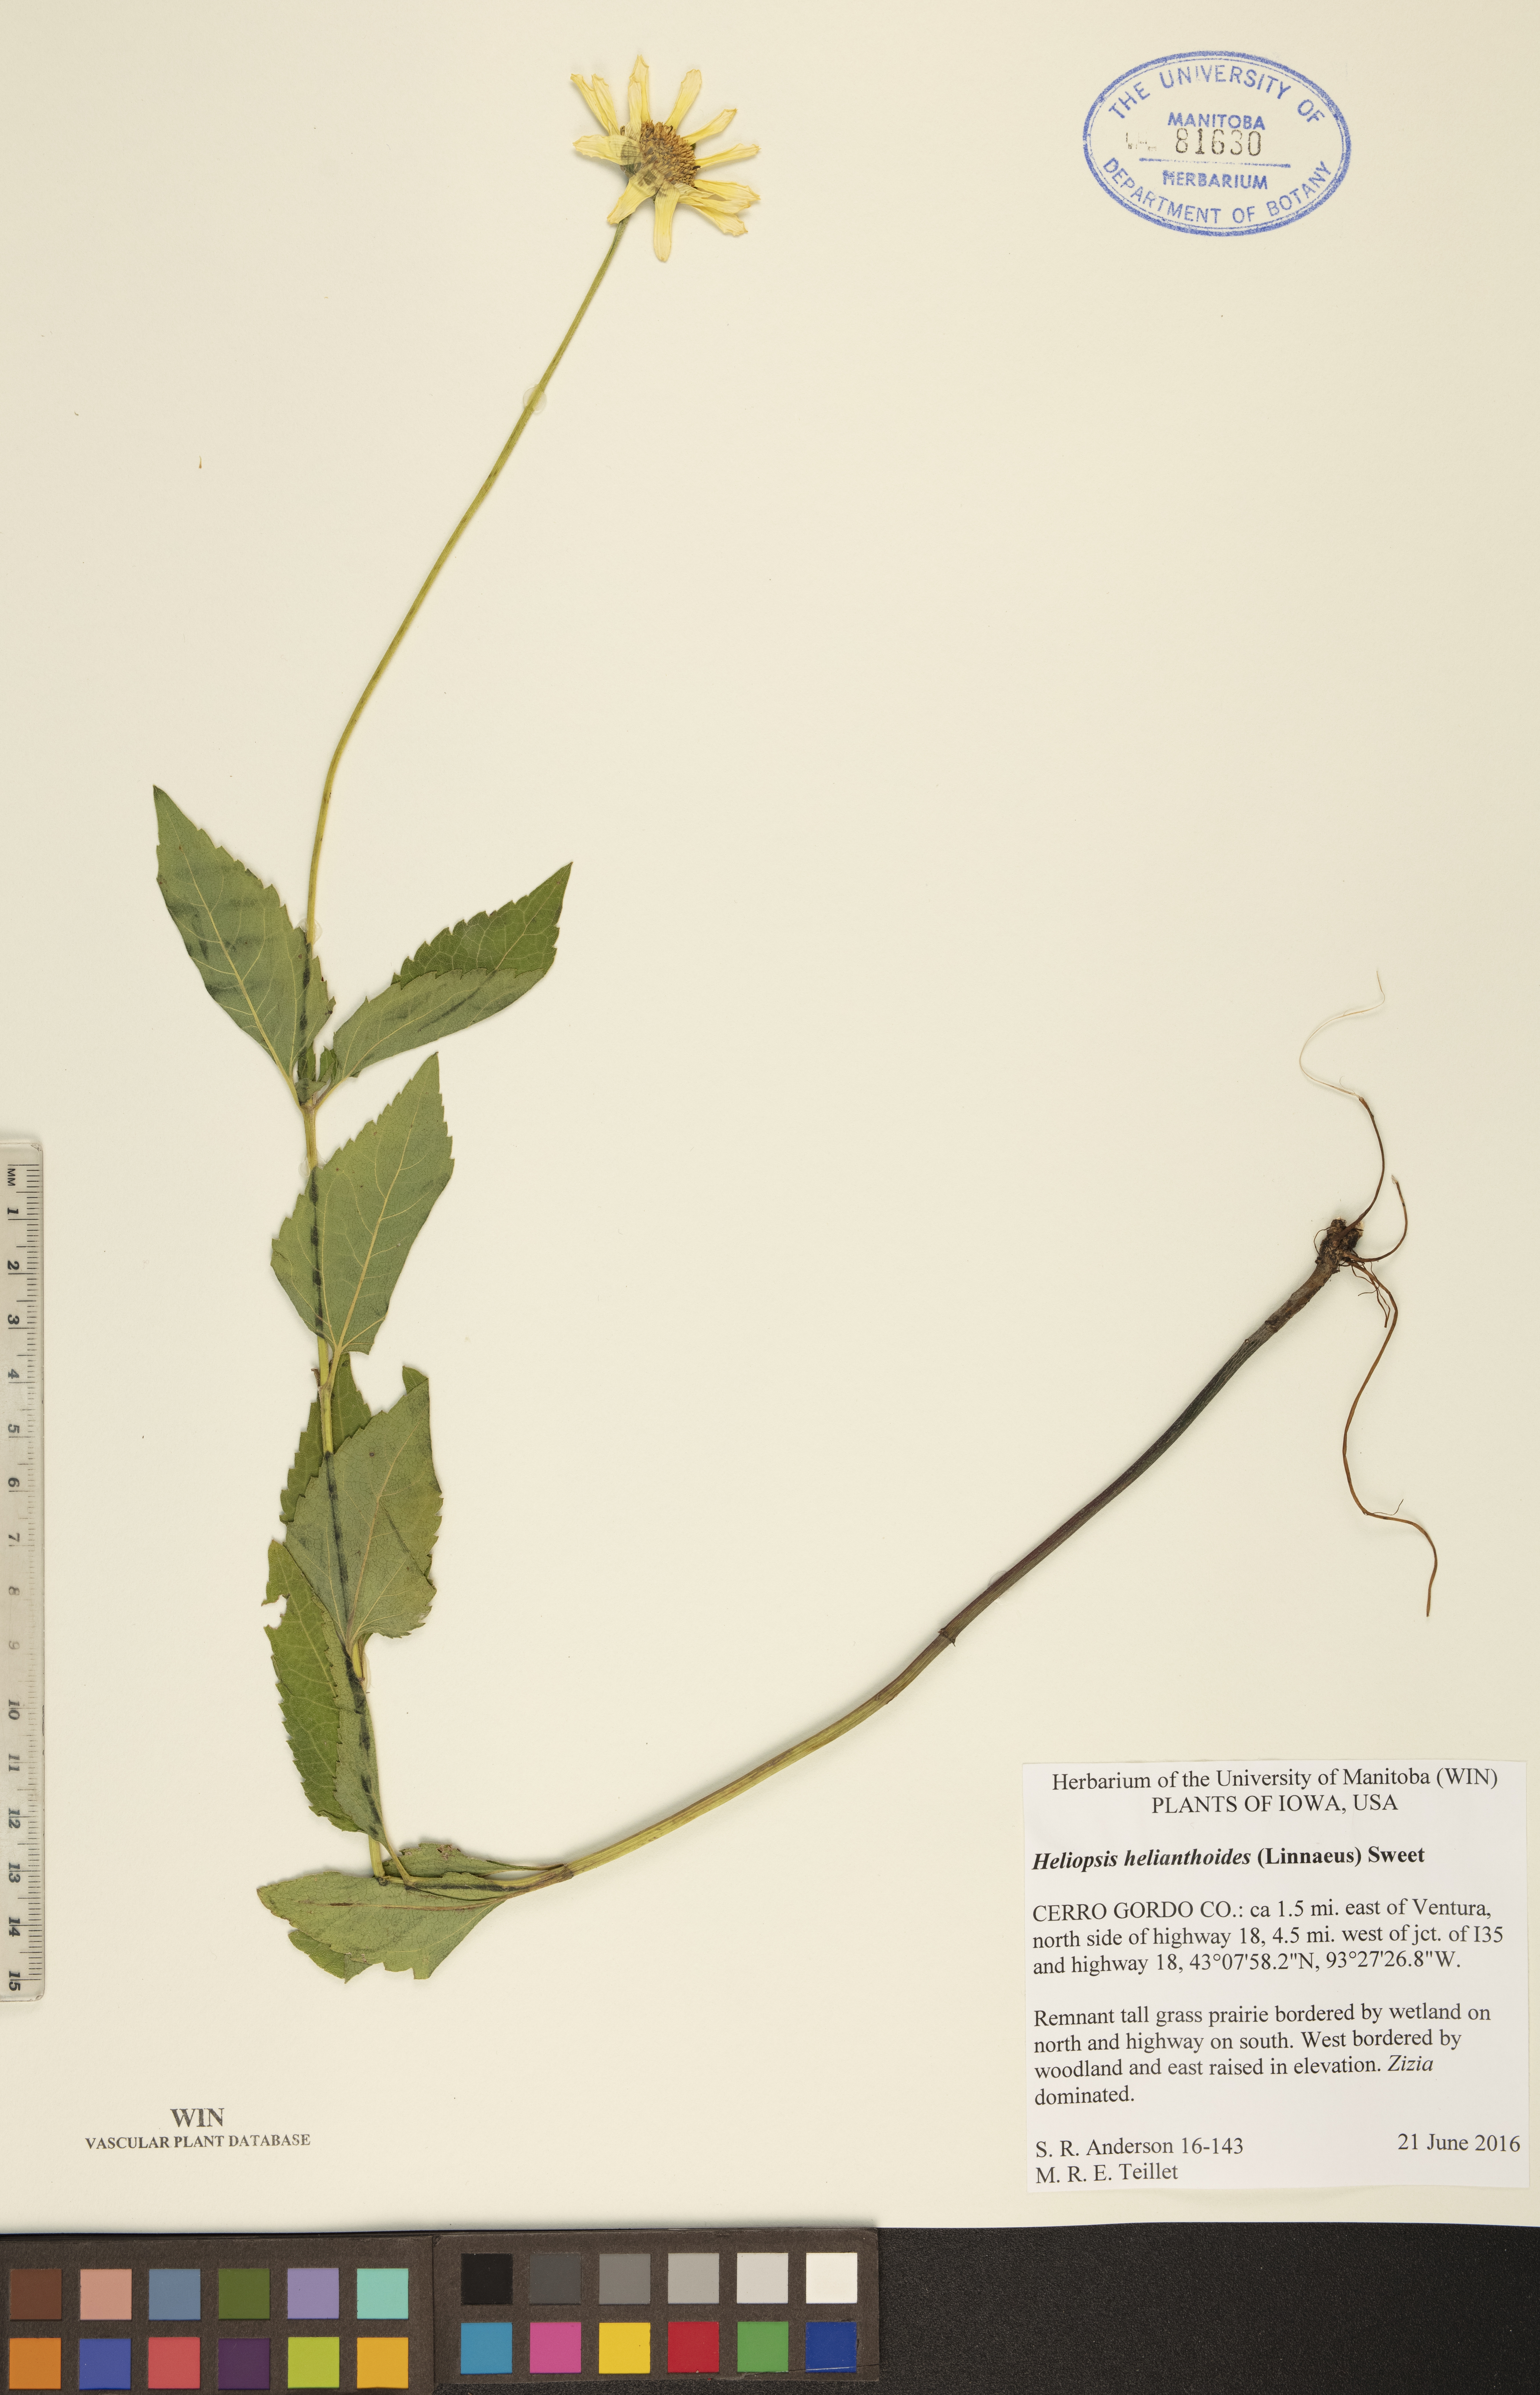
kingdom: Plantae
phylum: Tracheophyta
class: Magnoliopsida
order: Asterales
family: Asteraceae
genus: Heliopsis
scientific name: Heliopsis helianthoides
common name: False sunflower
